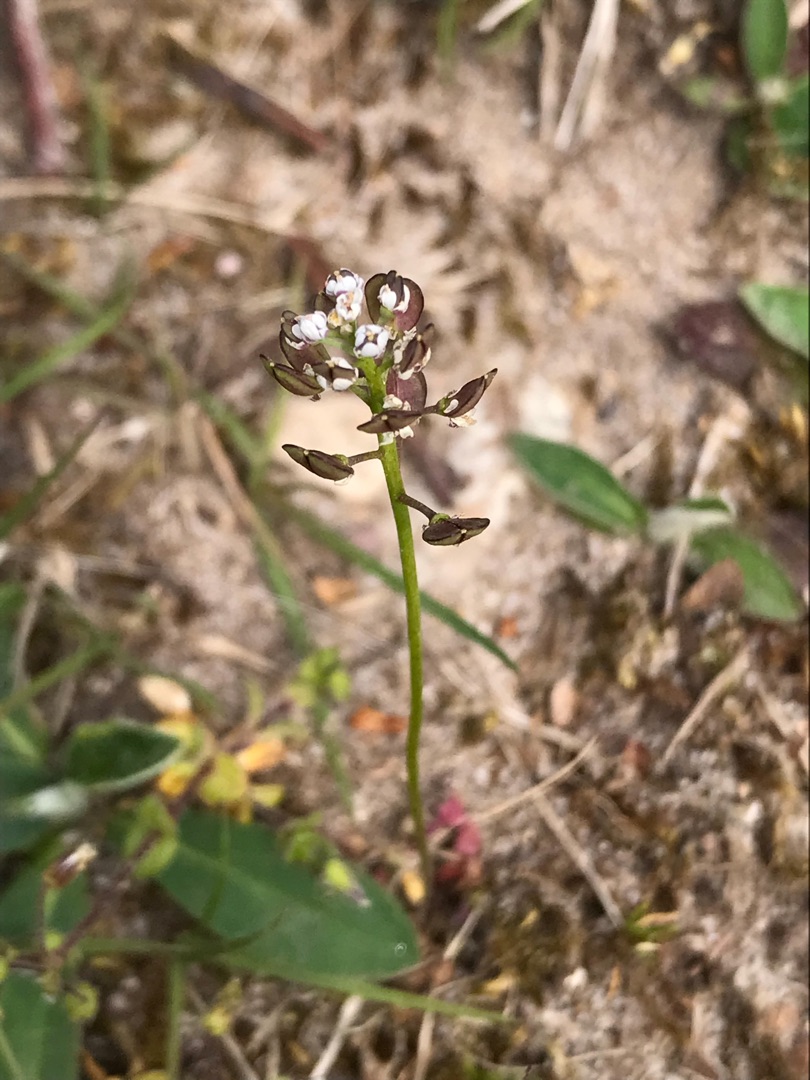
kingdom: Plantae
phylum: Tracheophyta
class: Magnoliopsida
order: Brassicales
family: Brassicaceae
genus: Teesdalia
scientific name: Teesdalia nudicaulis
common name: Flipkrave
